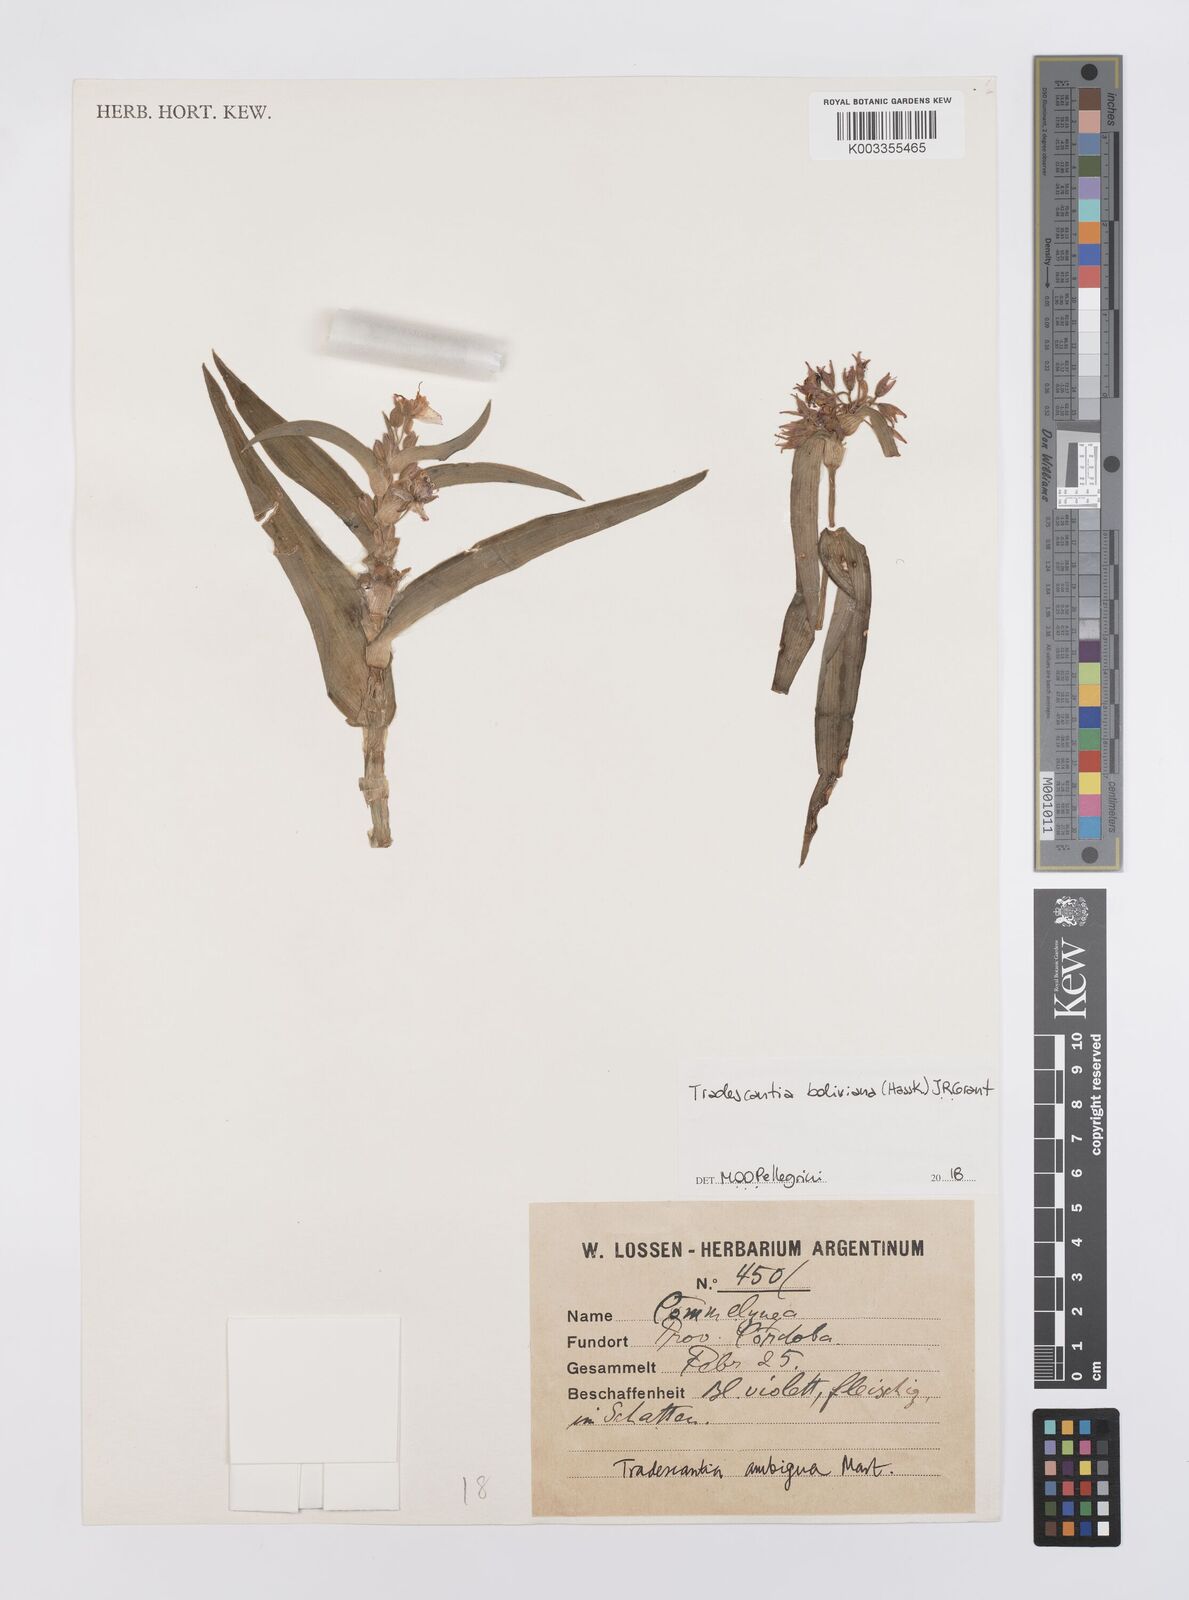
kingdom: Plantae
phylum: Tracheophyta
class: Liliopsida
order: Commelinales
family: Commelinaceae
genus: Tradescantia
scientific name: Tradescantia boliviana
